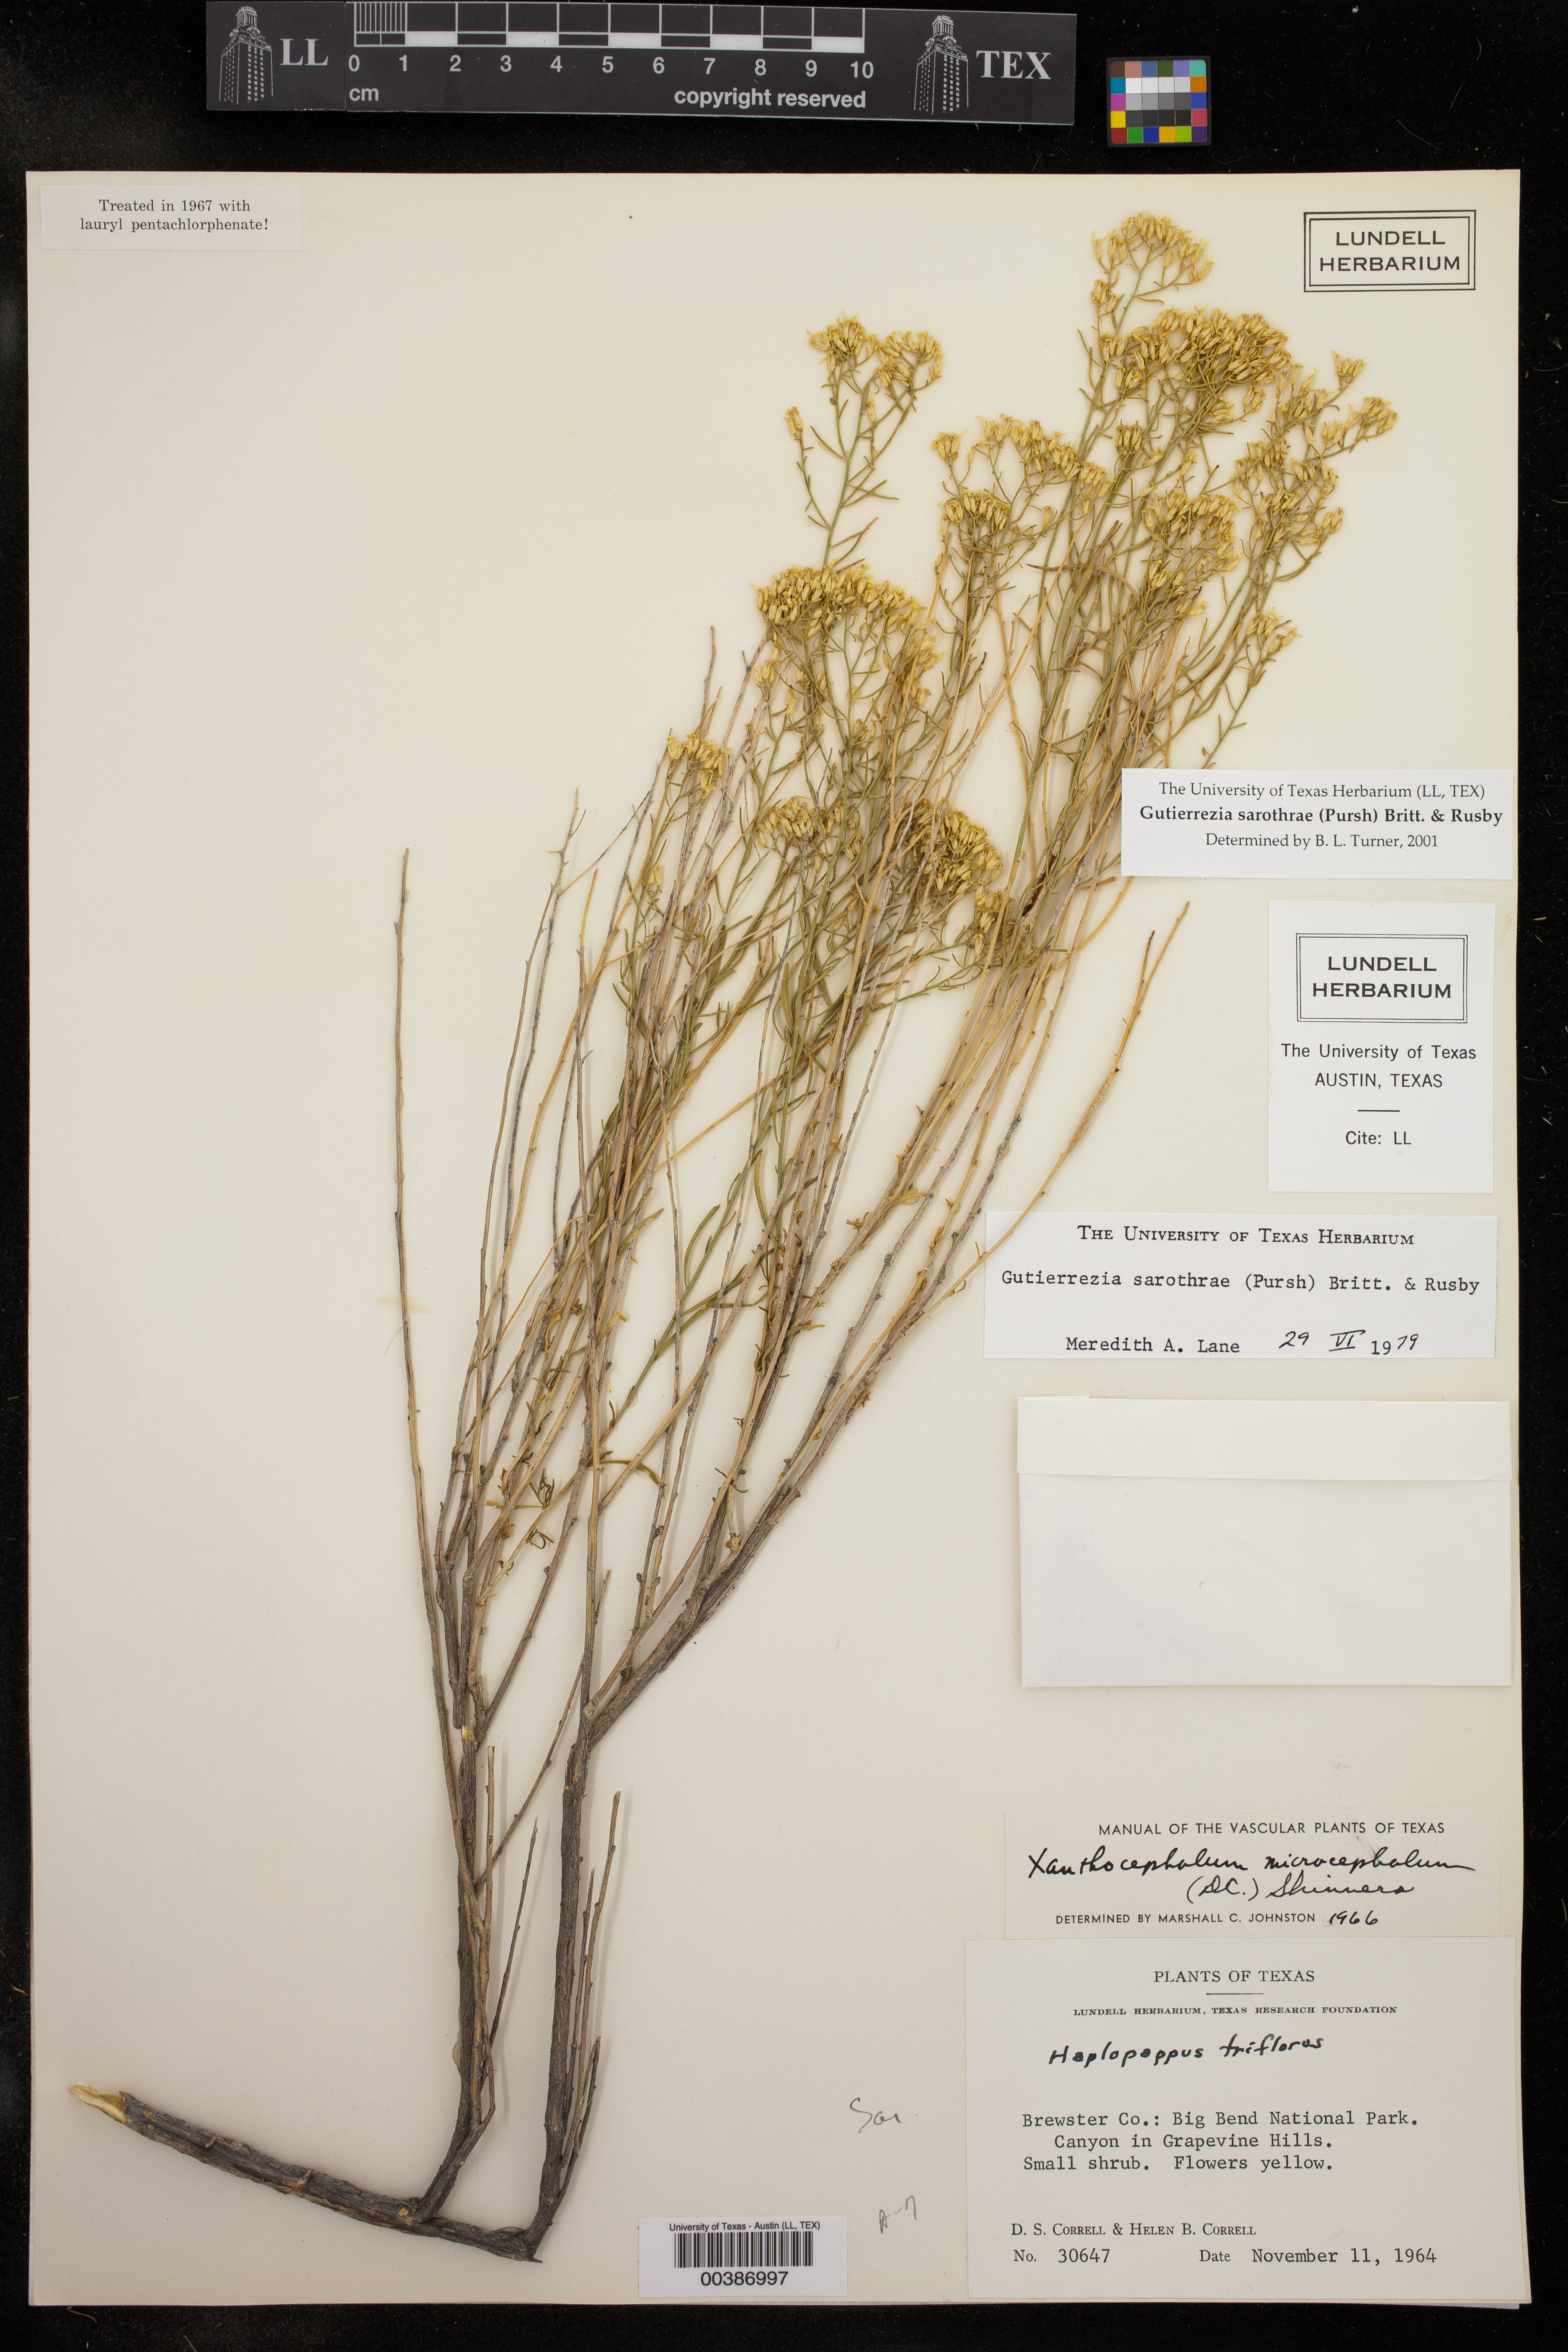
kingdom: Plantae
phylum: Tracheophyta
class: Magnoliopsida
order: Asterales
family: Asteraceae
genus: Gutierrezia
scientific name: Gutierrezia sarothrae
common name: Broom snakeweed
